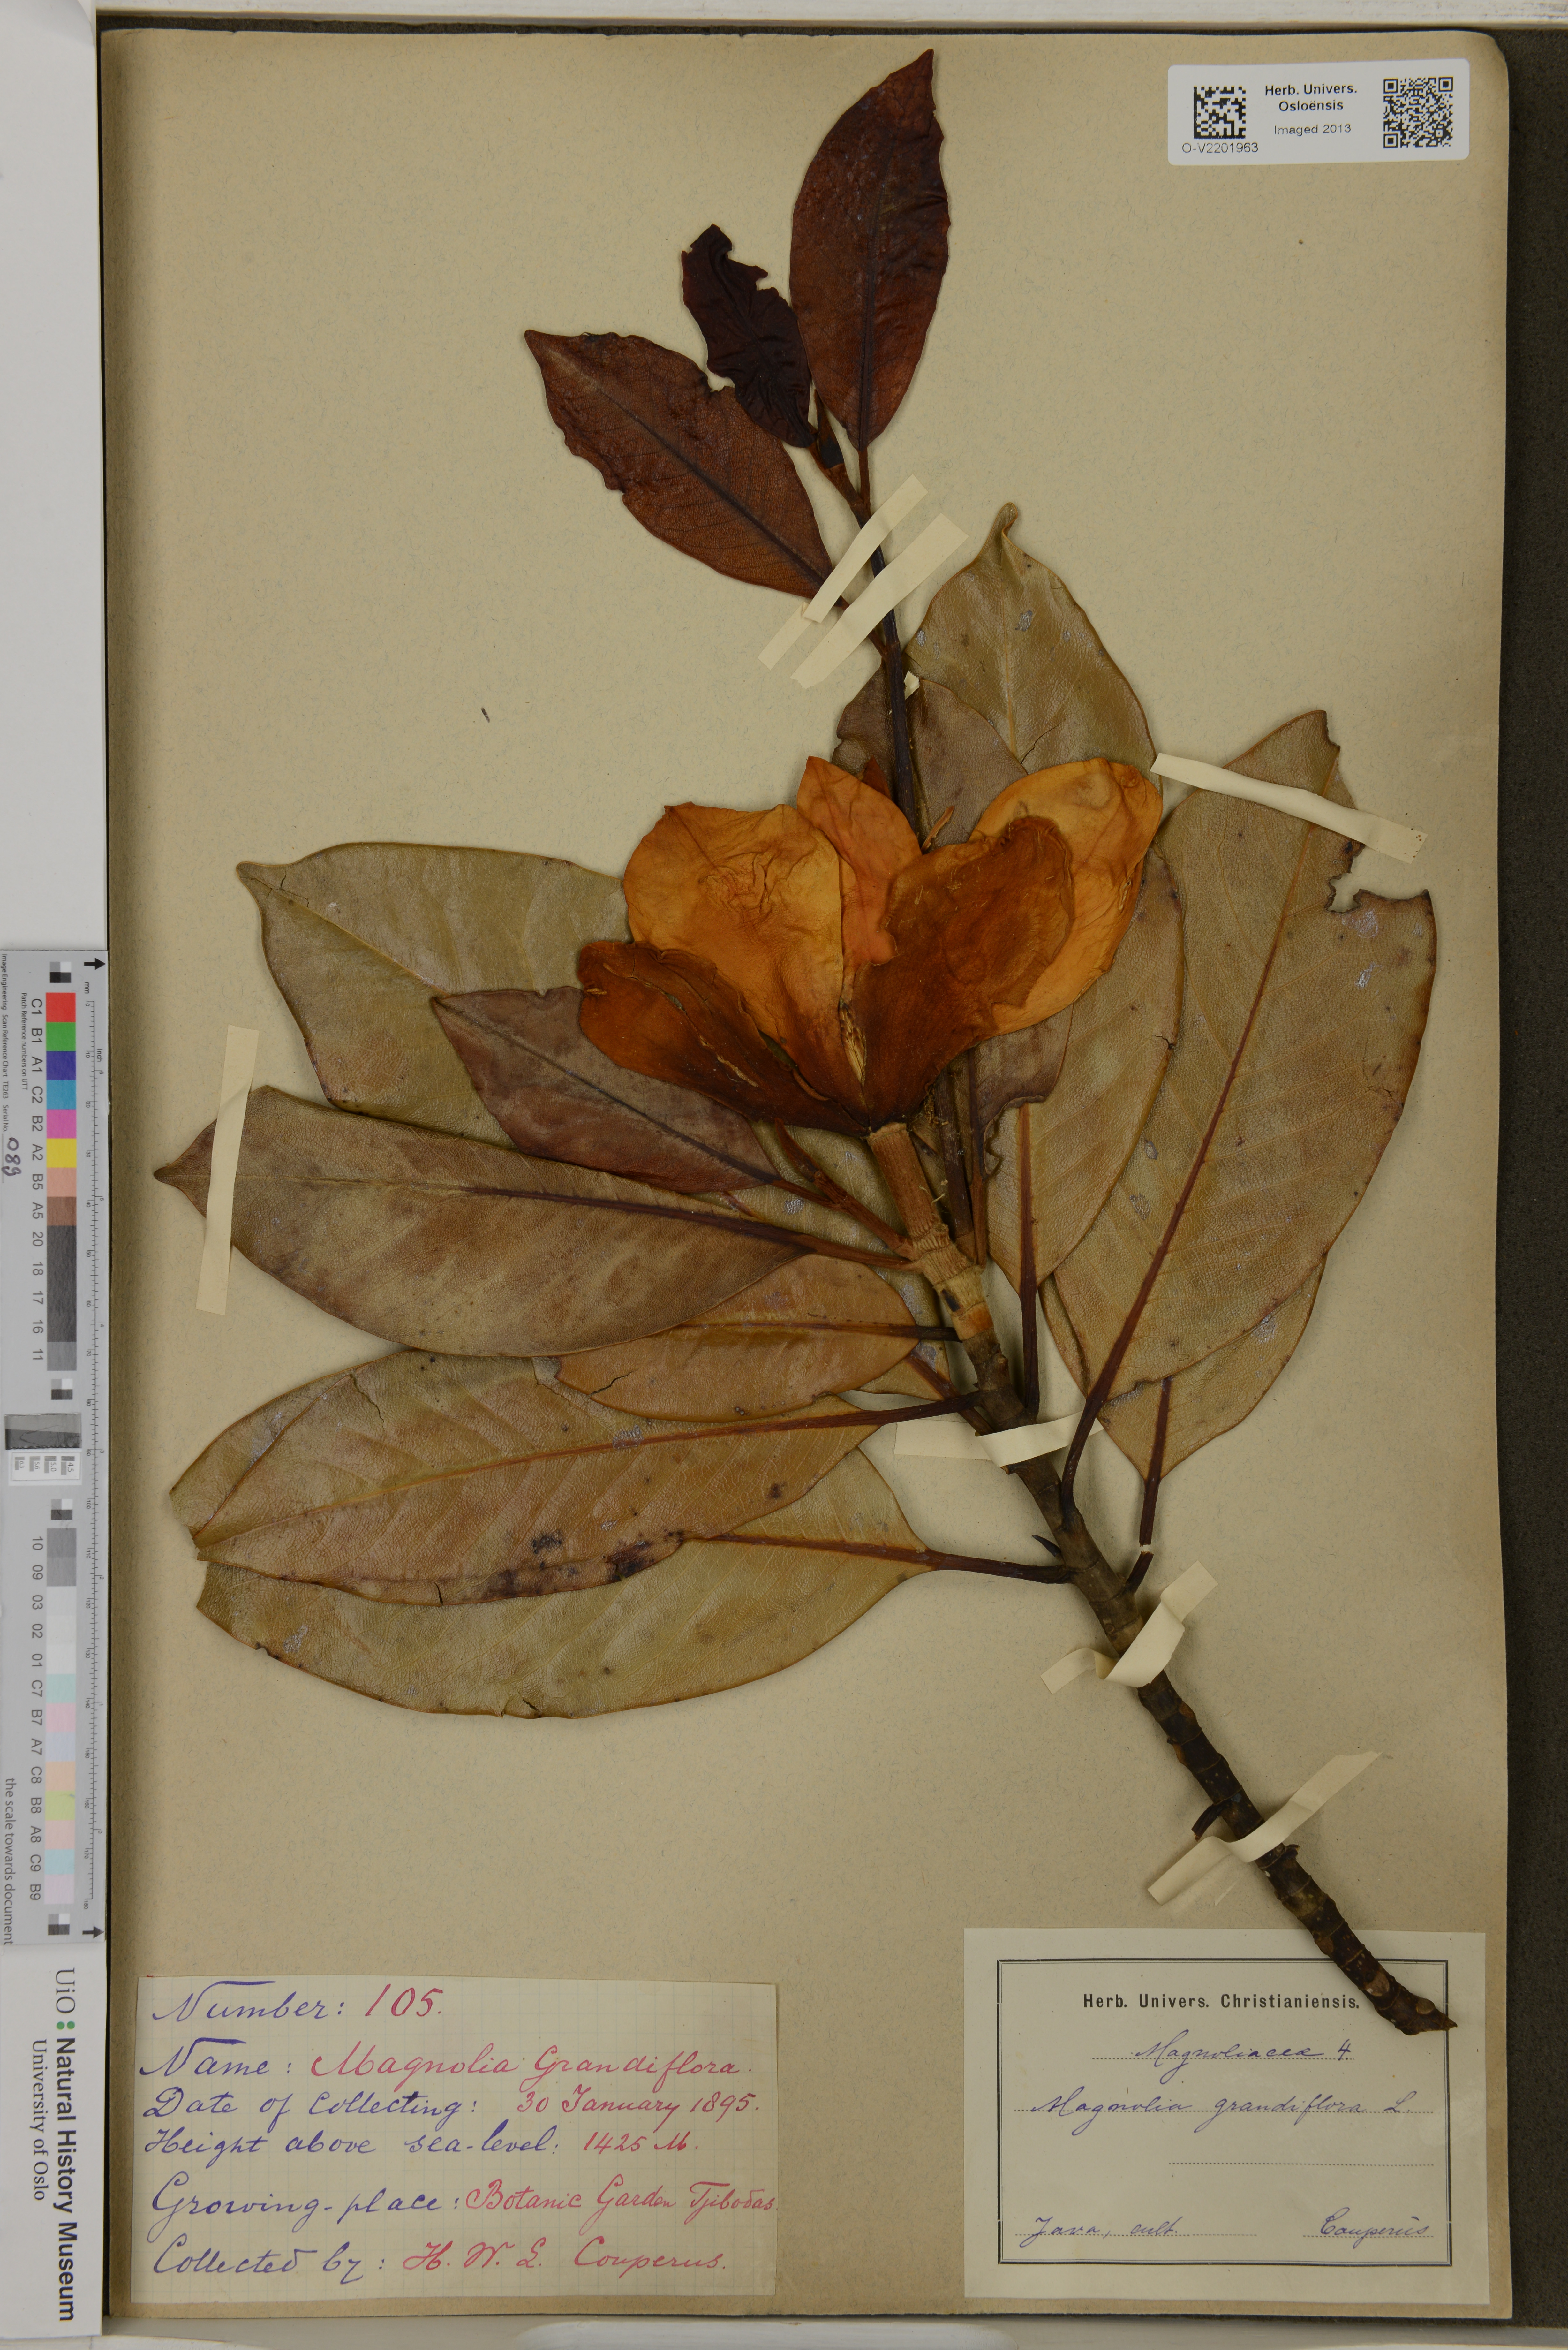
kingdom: Plantae
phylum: Tracheophyta
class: Magnoliopsida
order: Magnoliales
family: Magnoliaceae
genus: Magnolia
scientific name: Magnolia grandiflora
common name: Southern magnolia
